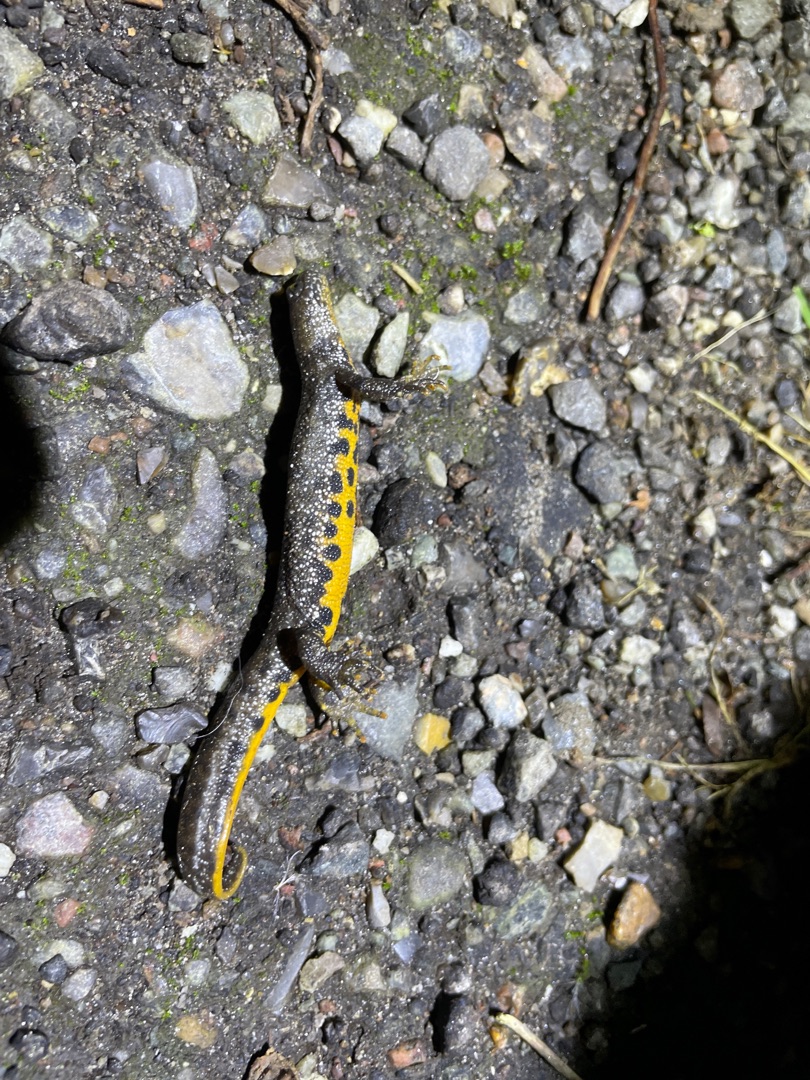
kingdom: Animalia
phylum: Chordata
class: Amphibia
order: Caudata
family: Salamandridae
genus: Triturus
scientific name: Triturus cristatus
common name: Stor vandsalamander
